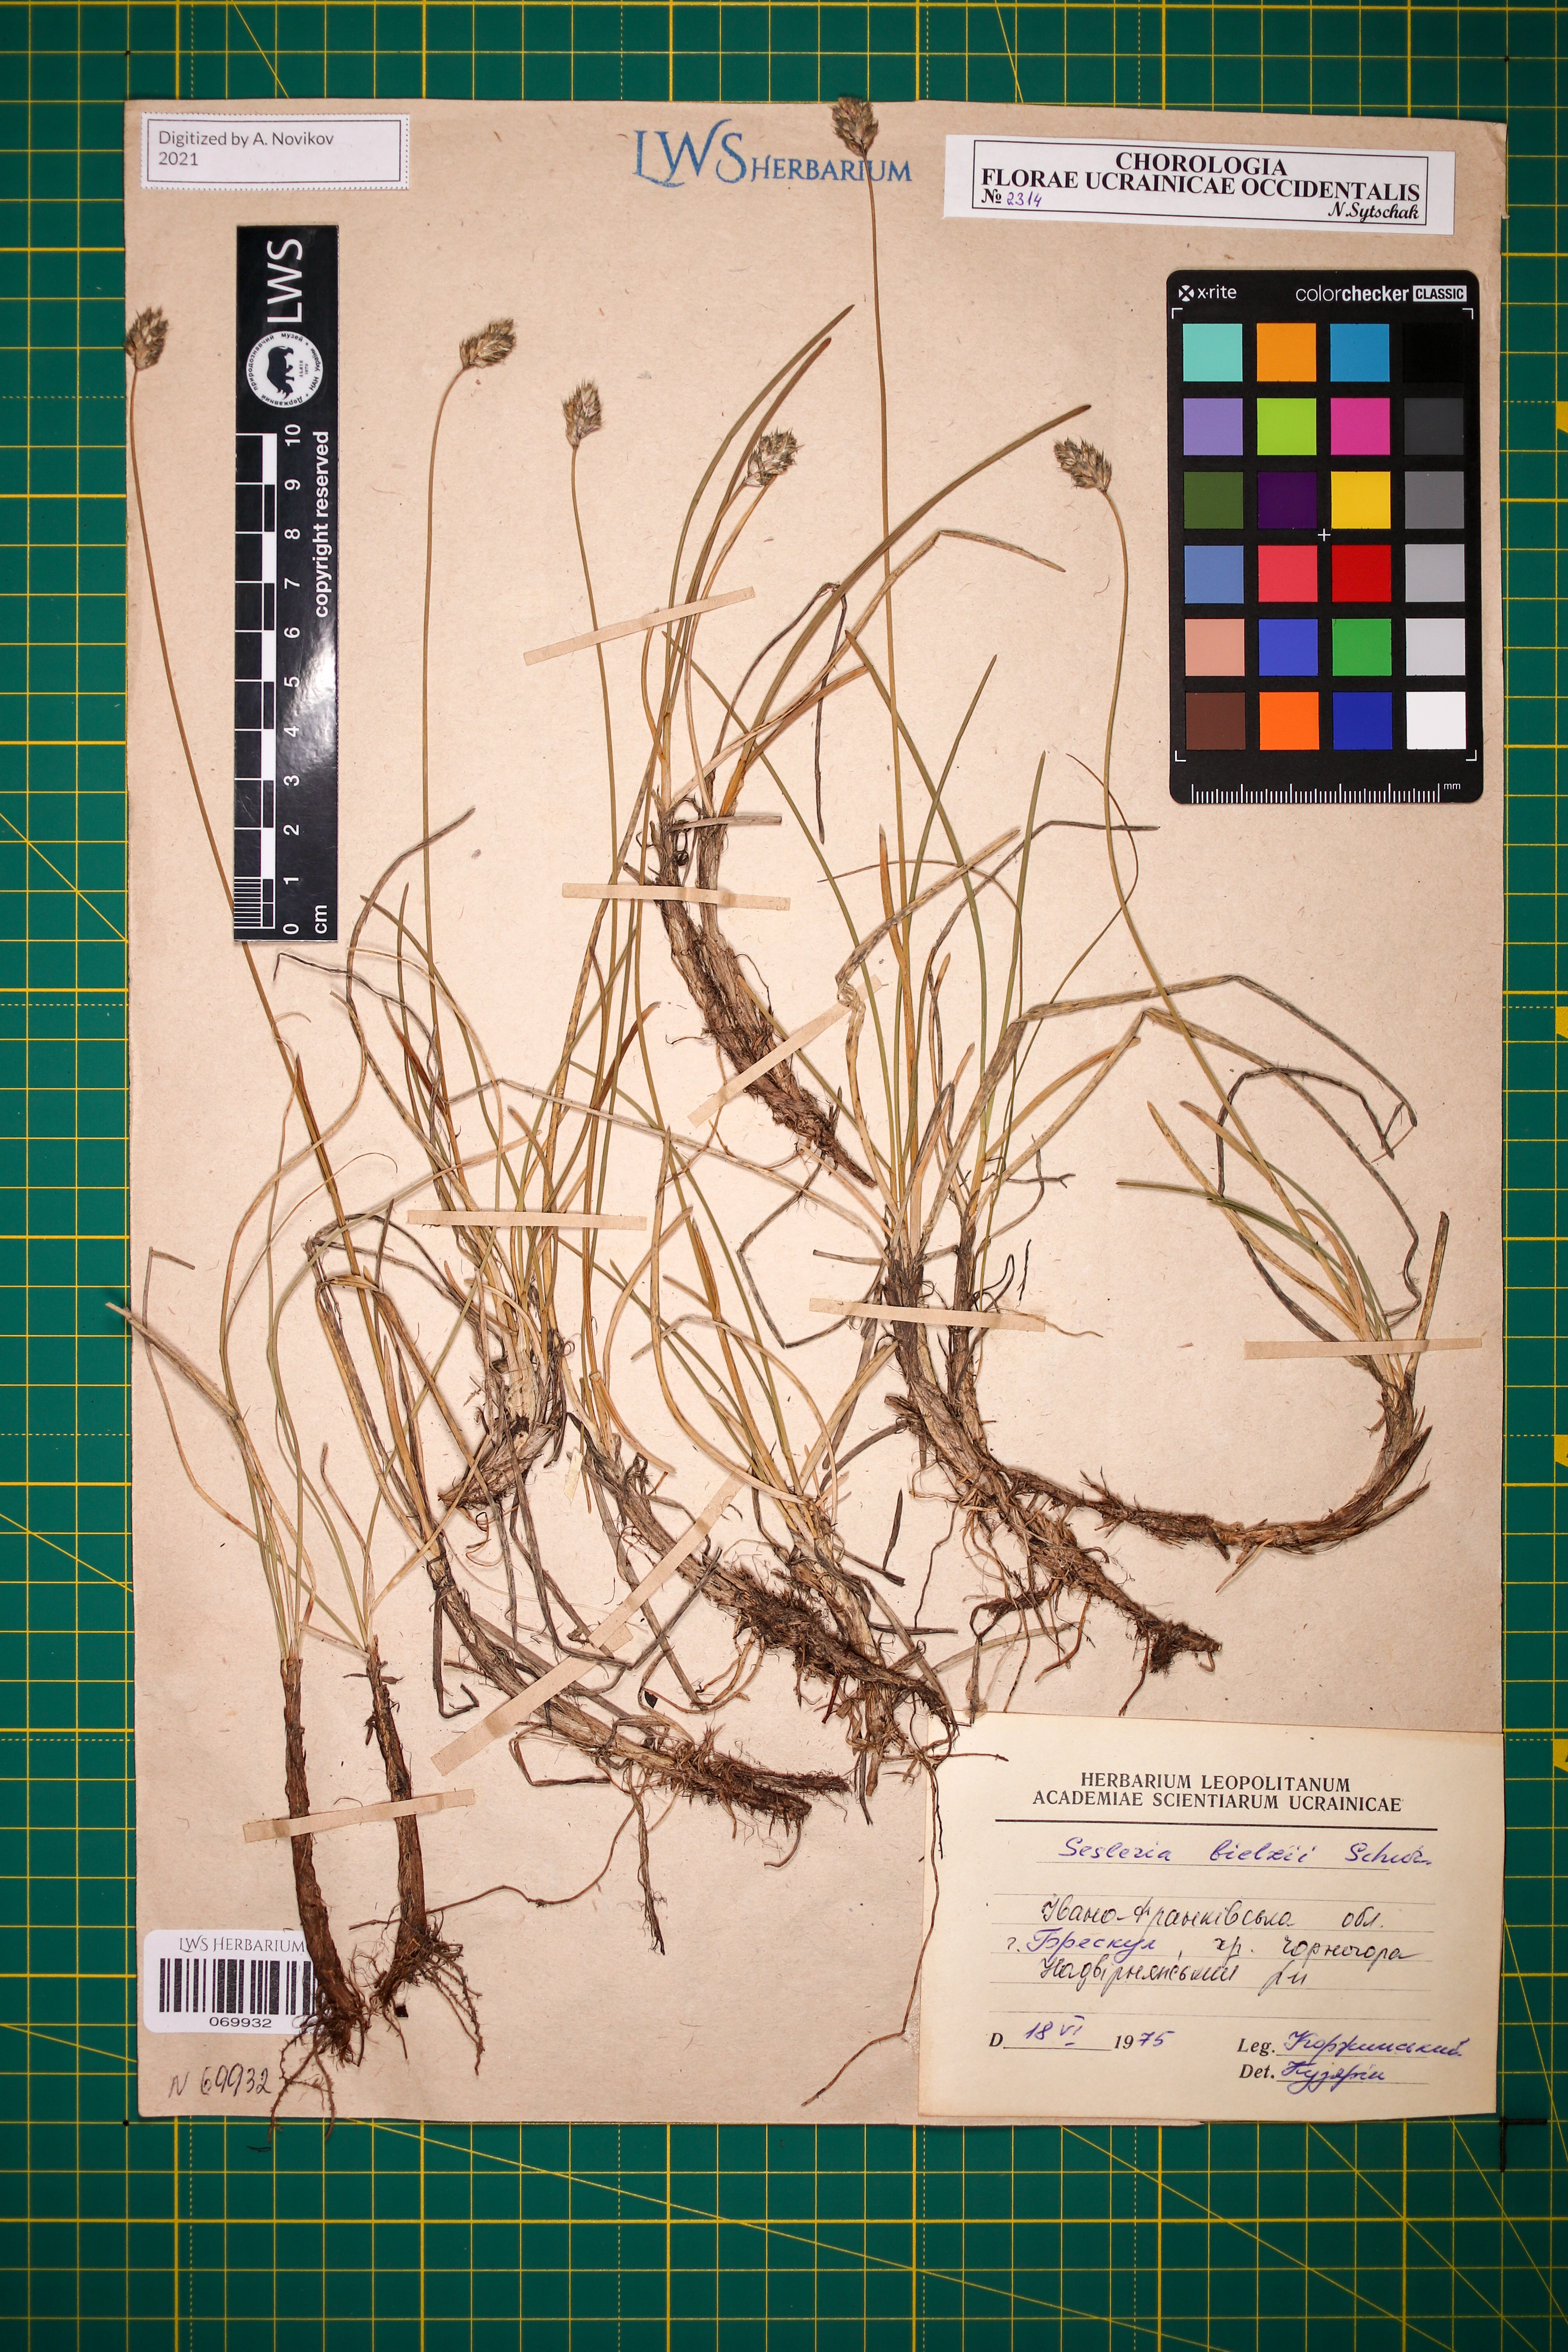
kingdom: Plantae
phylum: Tracheophyta
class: Liliopsida
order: Poales
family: Poaceae
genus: Sesleria
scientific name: Sesleria bielzii
